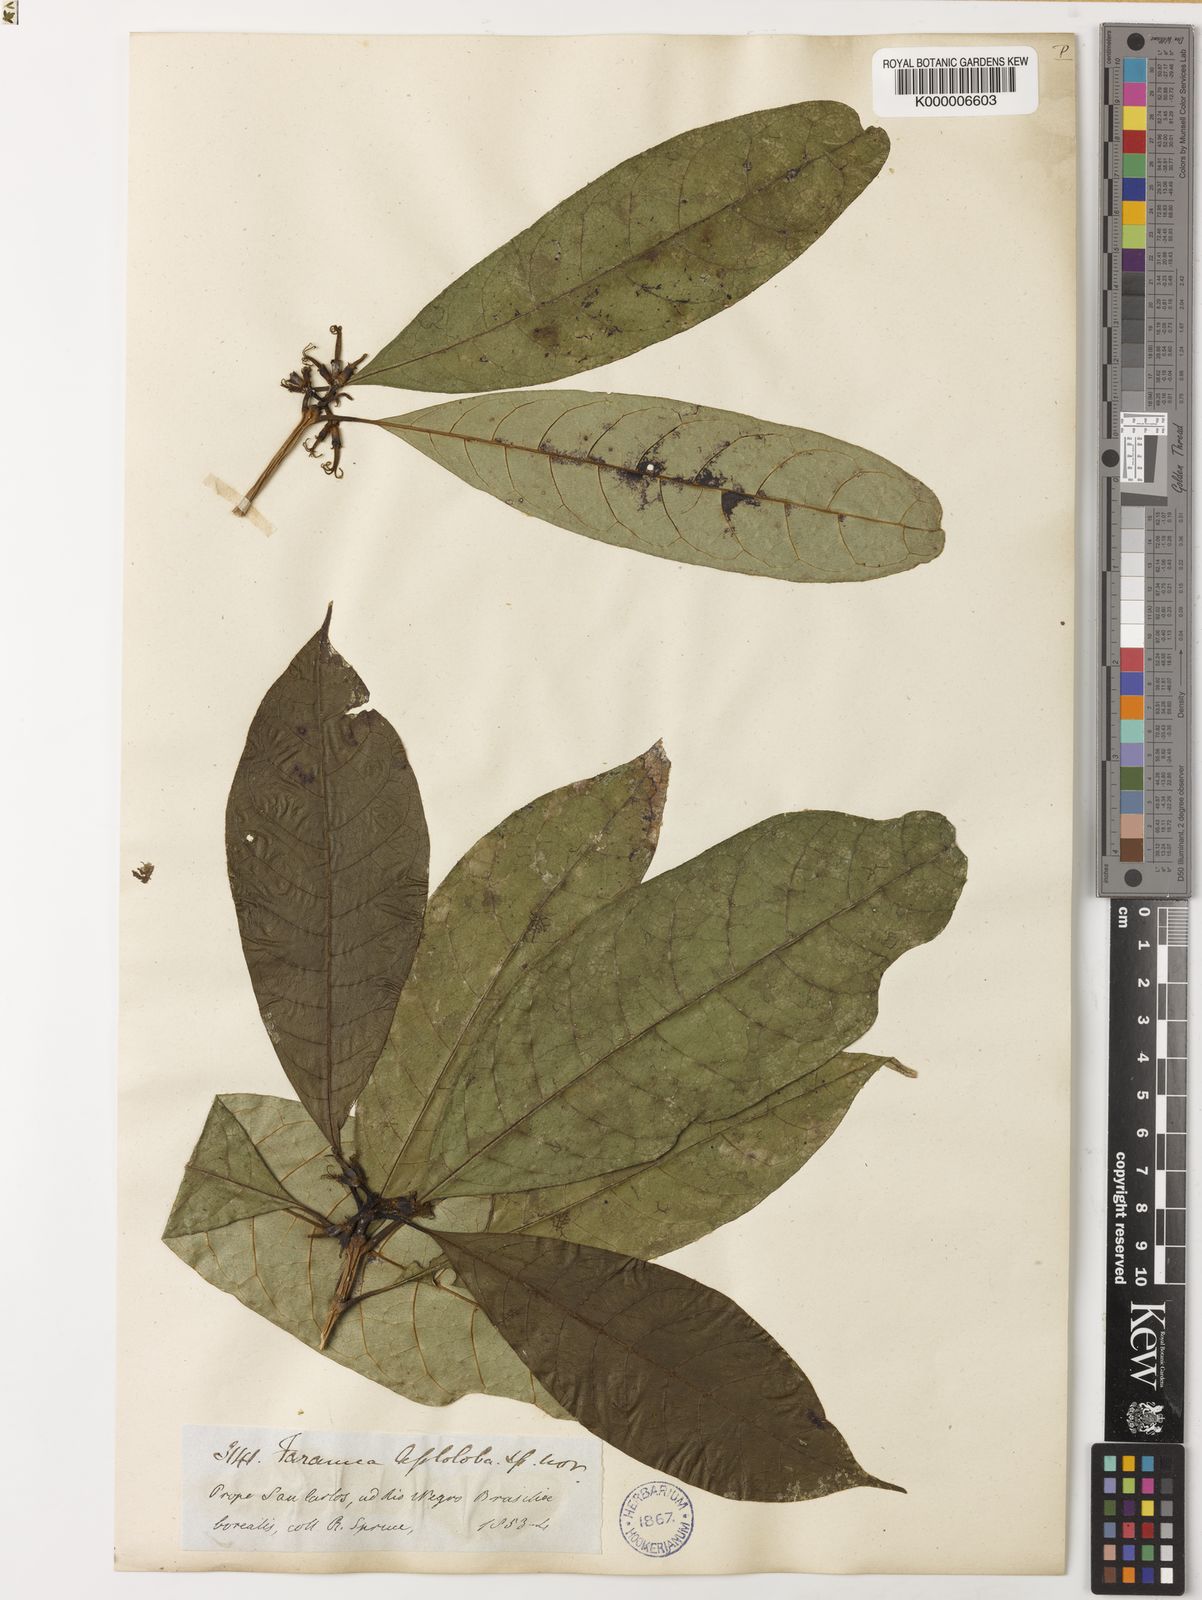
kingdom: Plantae
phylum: Tracheophyta
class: Magnoliopsida
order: Gentianales
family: Rubiaceae
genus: Coussarea
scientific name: Coussarea
